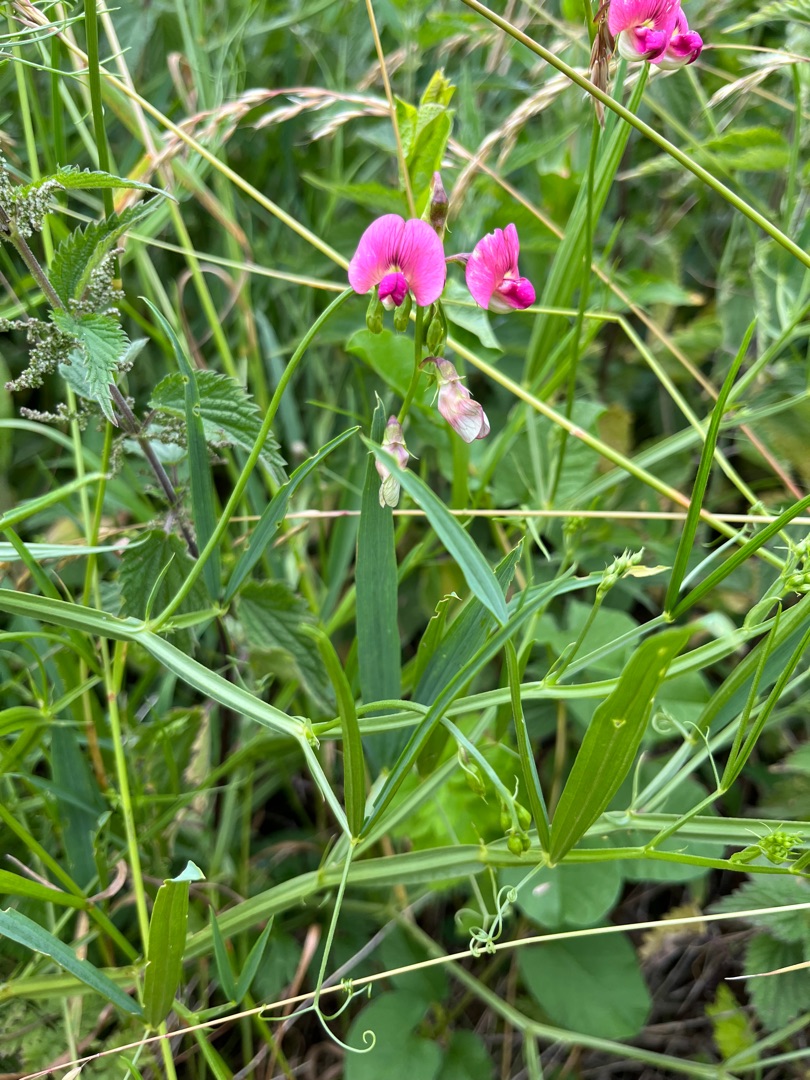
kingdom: Plantae
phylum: Tracheophyta
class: Magnoliopsida
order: Fabales
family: Fabaceae
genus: Lathyrus
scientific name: Lathyrus sylvestris
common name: Skov-fladbælg
